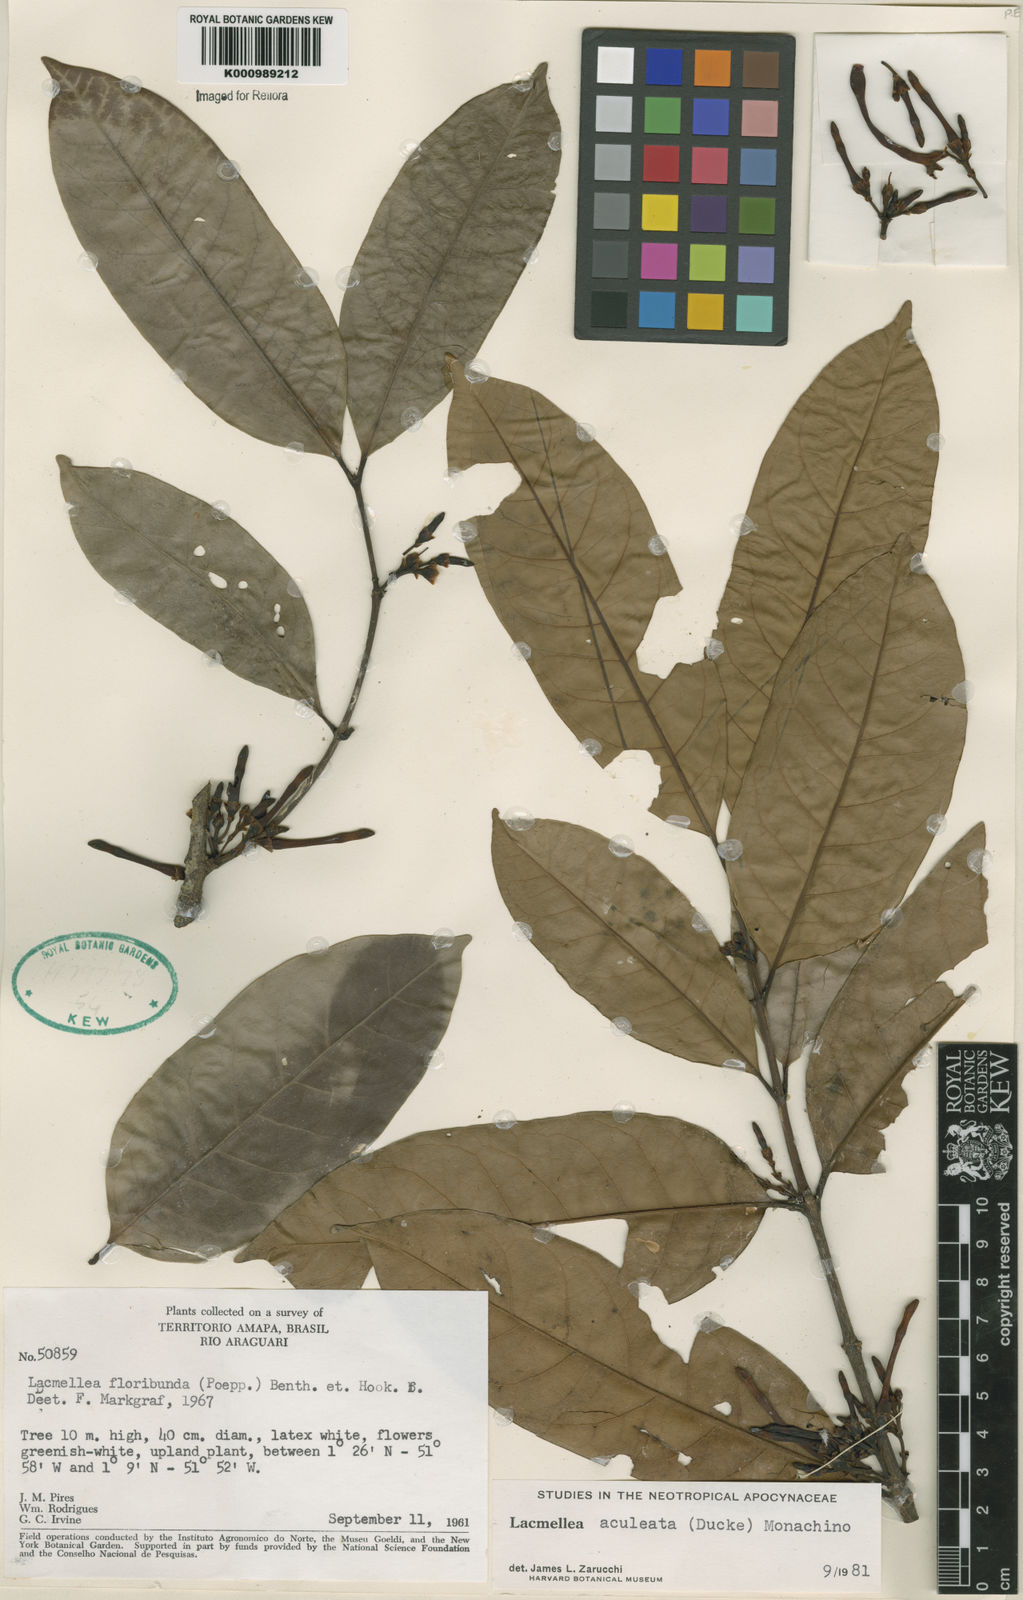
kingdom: Plantae
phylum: Tracheophyta
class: Magnoliopsida
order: Gentianales
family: Apocynaceae
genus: Lacmellea
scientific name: Lacmellea aculeata
